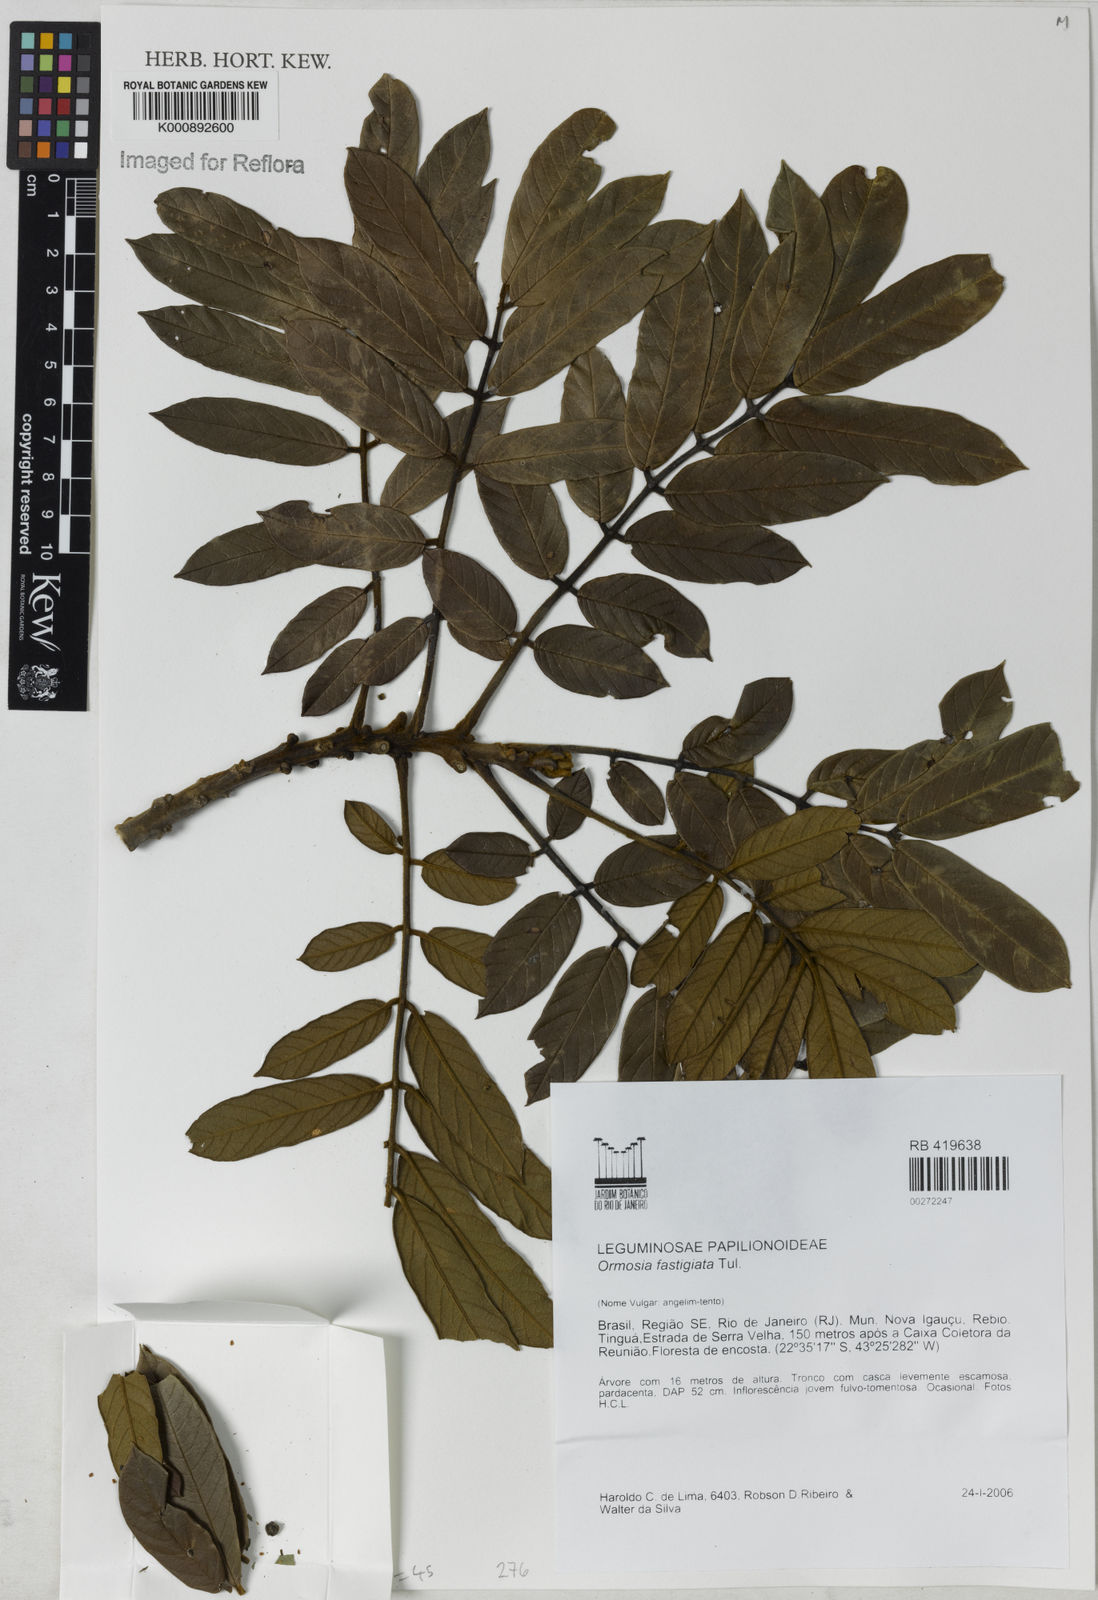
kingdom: Plantae
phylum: Tracheophyta
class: Magnoliopsida
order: Fabales
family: Fabaceae
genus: Ormosia
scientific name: Ormosia coarctata
